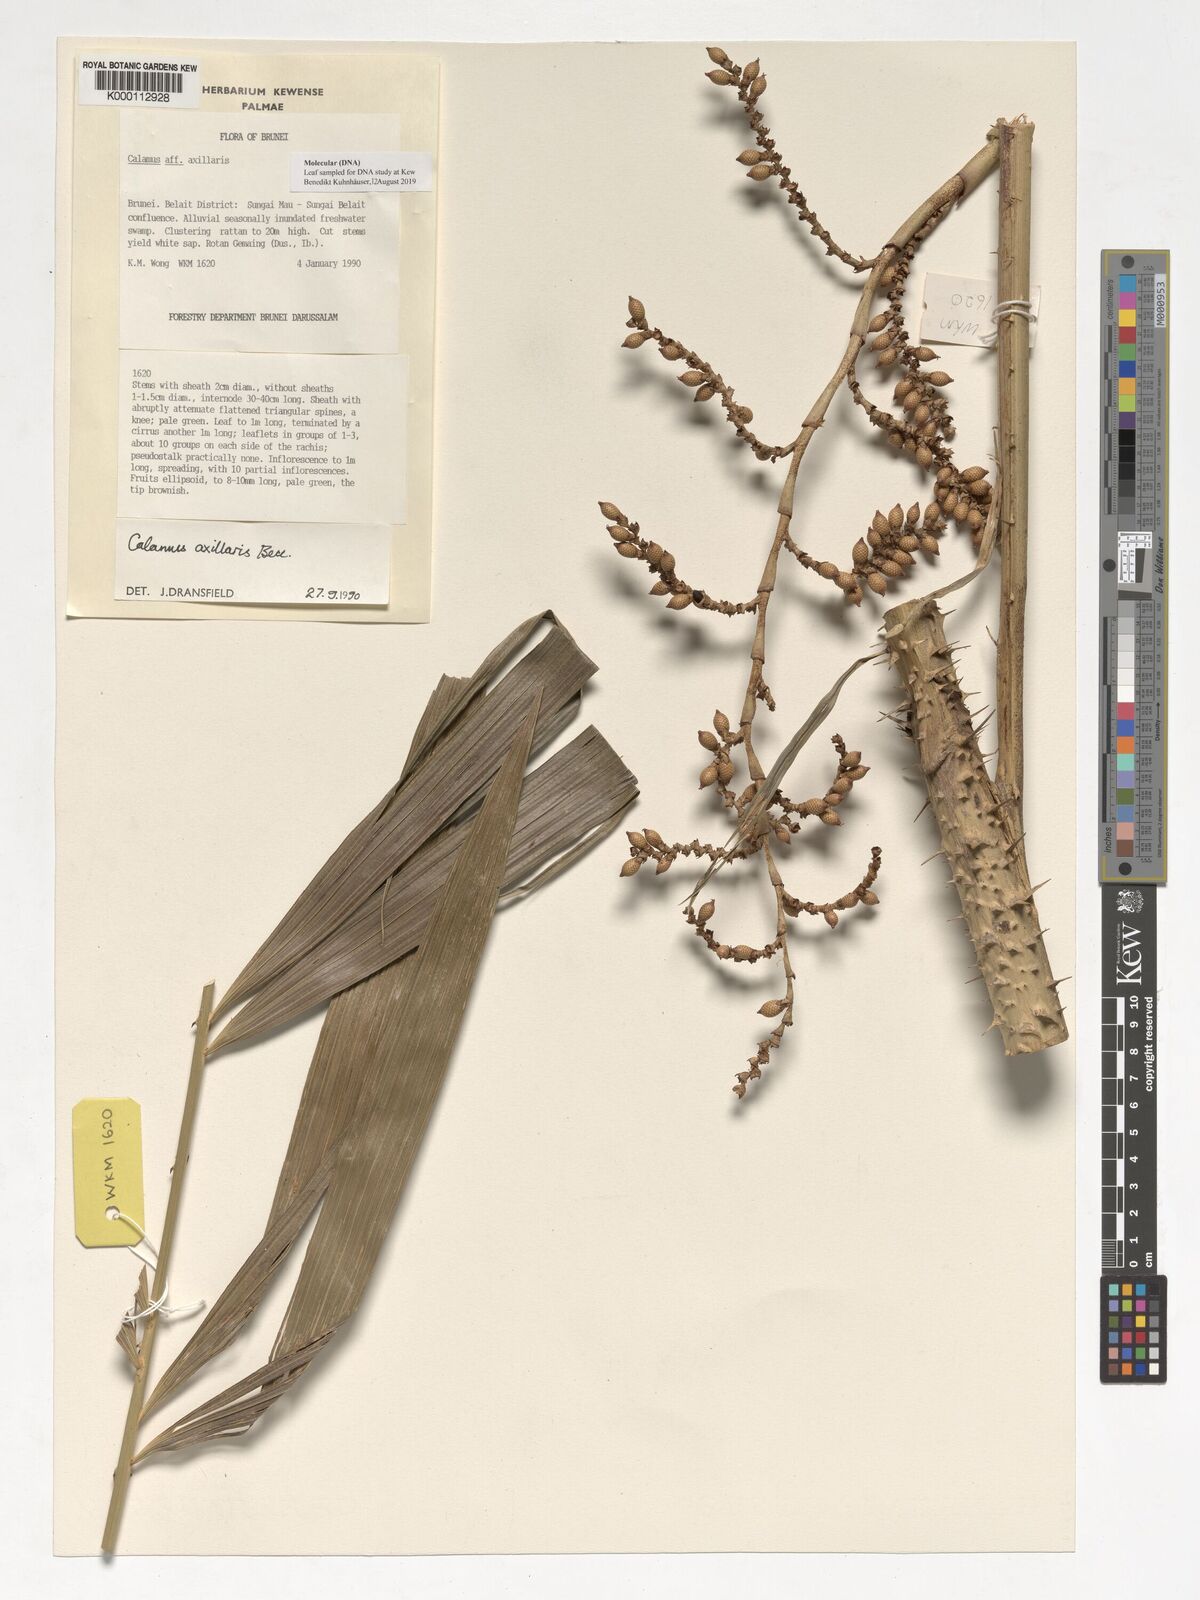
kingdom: Plantae
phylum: Tracheophyta
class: Liliopsida
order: Arecales
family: Arecaceae
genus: Calamus
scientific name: Calamus axillaris
